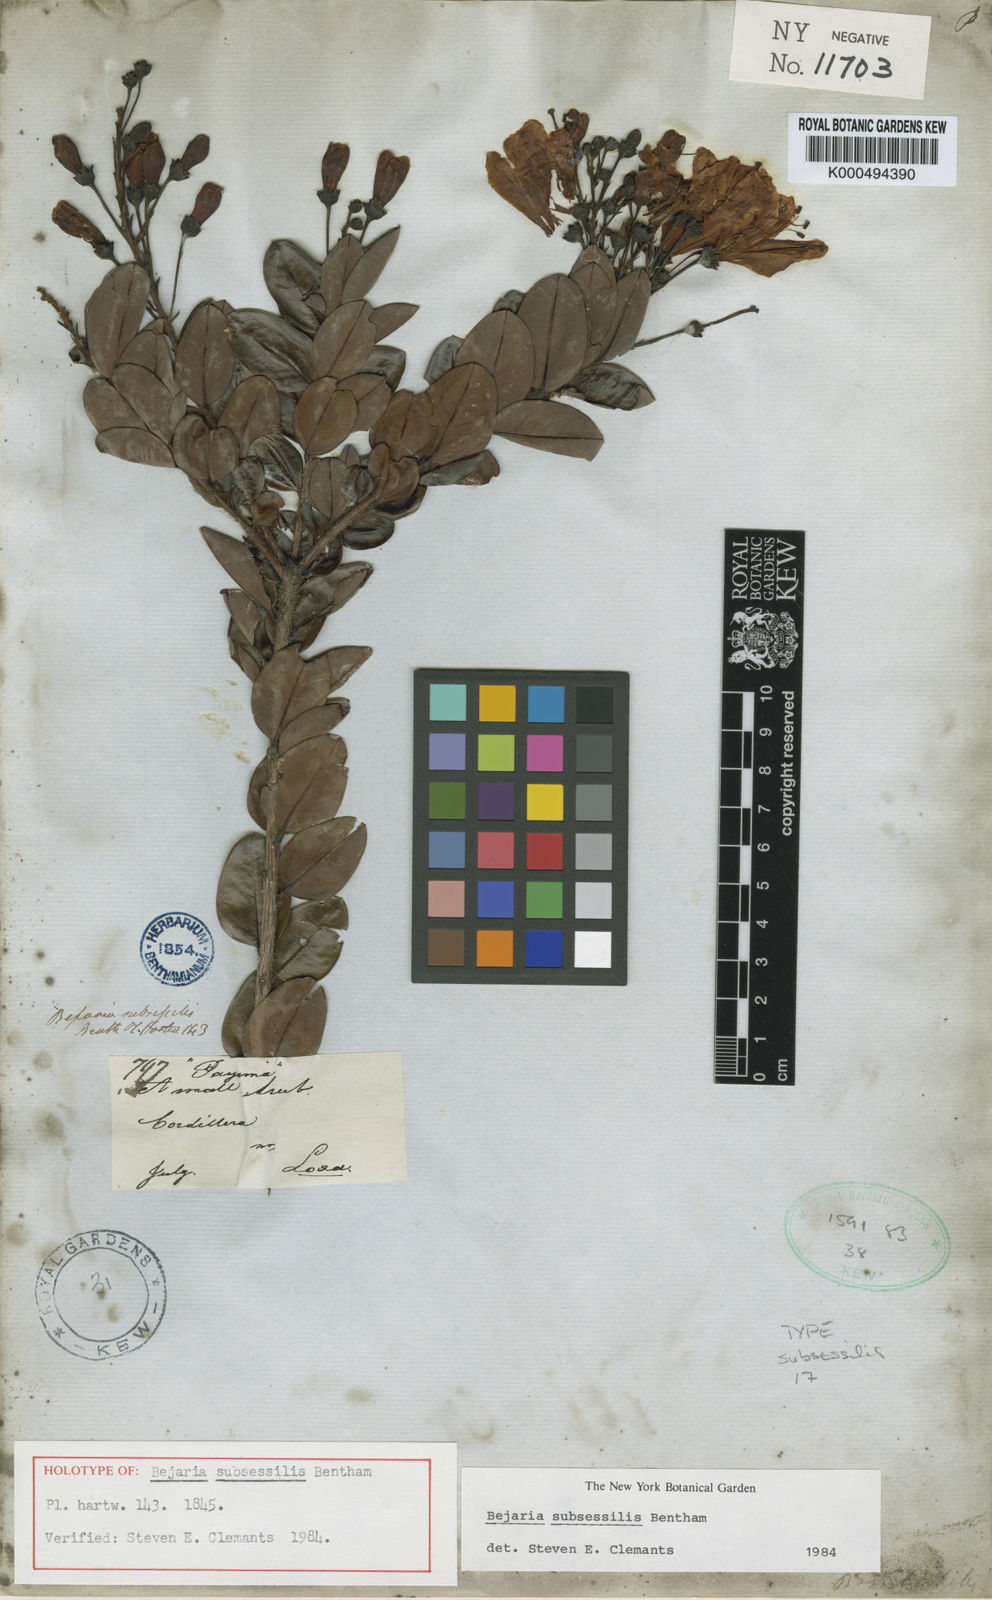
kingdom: Plantae
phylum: Tracheophyta
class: Magnoliopsida
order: Ericales
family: Ericaceae
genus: Bejaria
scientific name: Bejaria subsessilis
